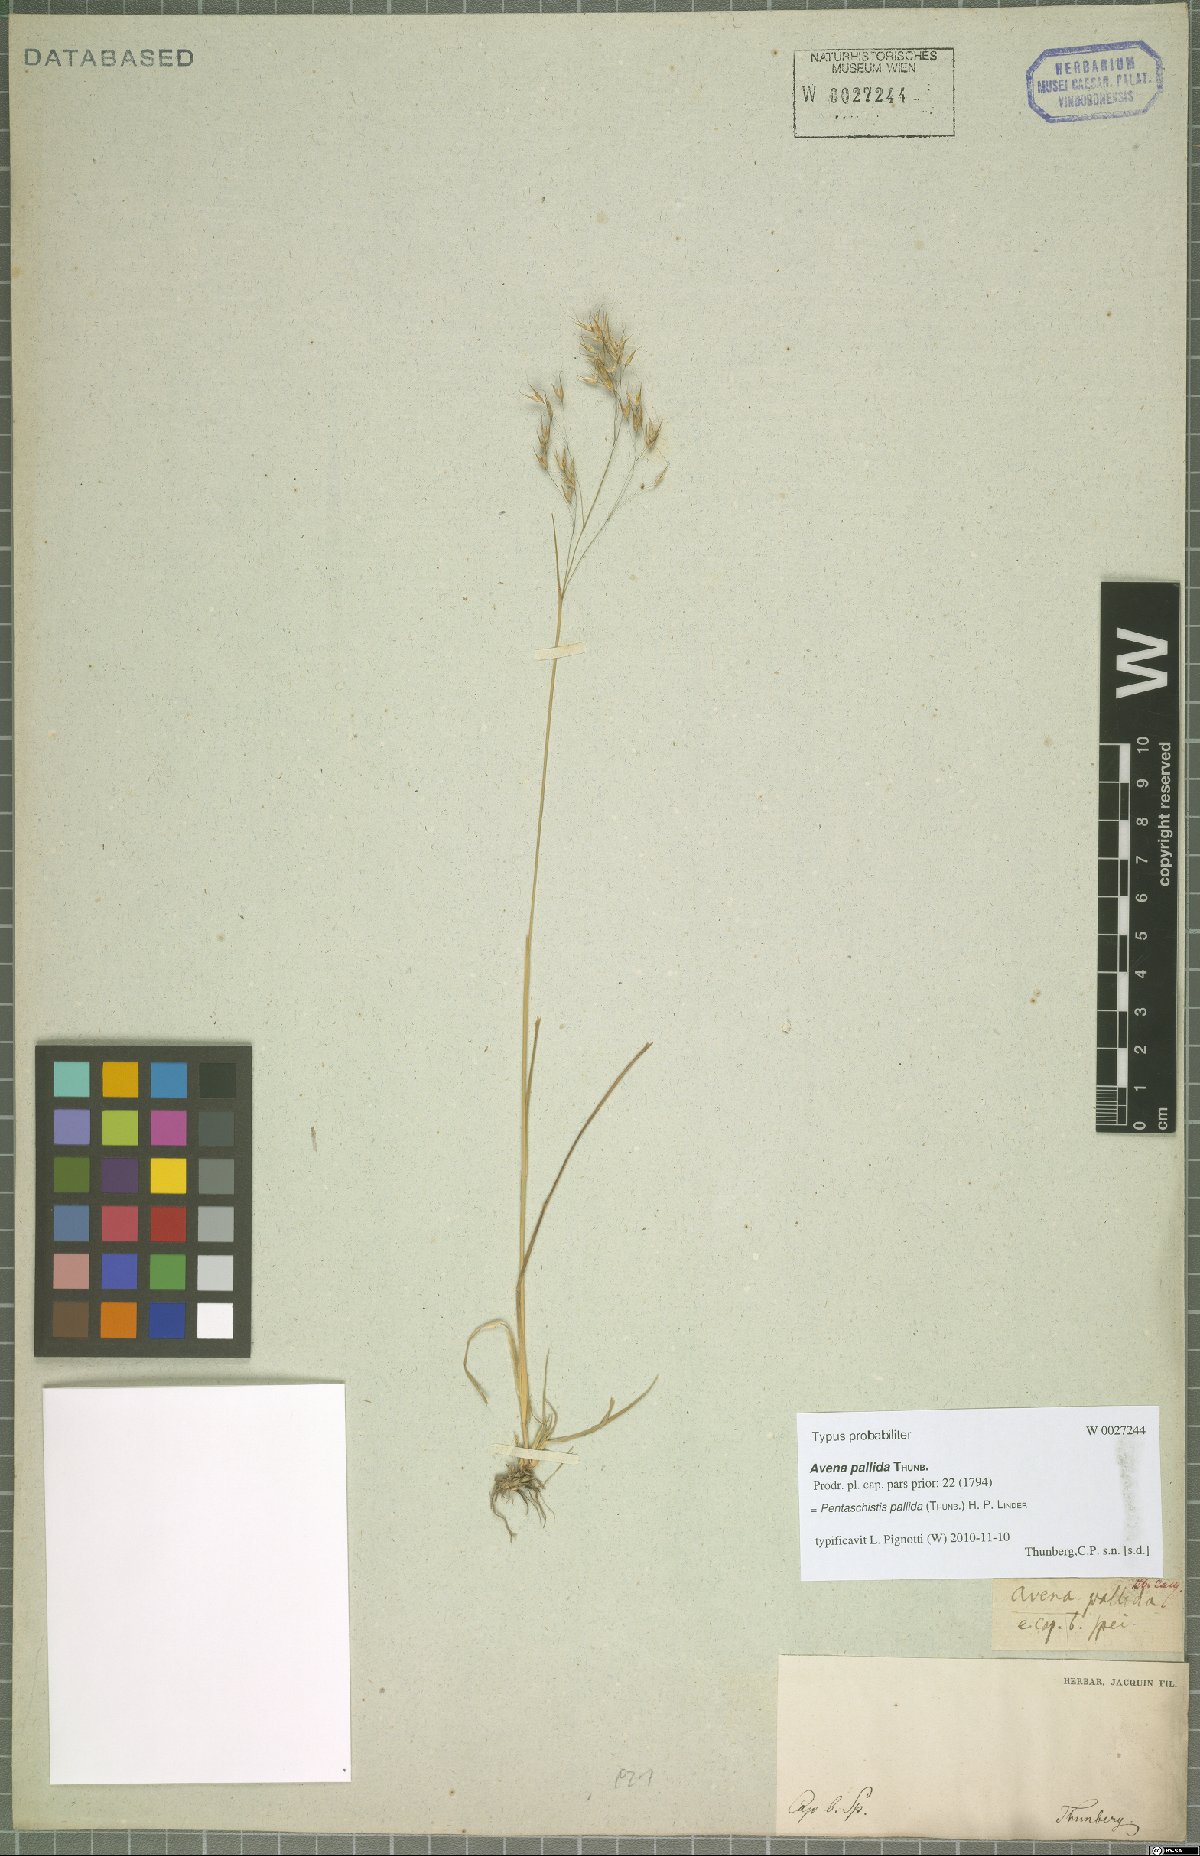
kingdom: Plantae
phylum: Tracheophyta
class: Liliopsida
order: Poales
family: Poaceae
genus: Pentameris
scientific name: Pentameris pallida
